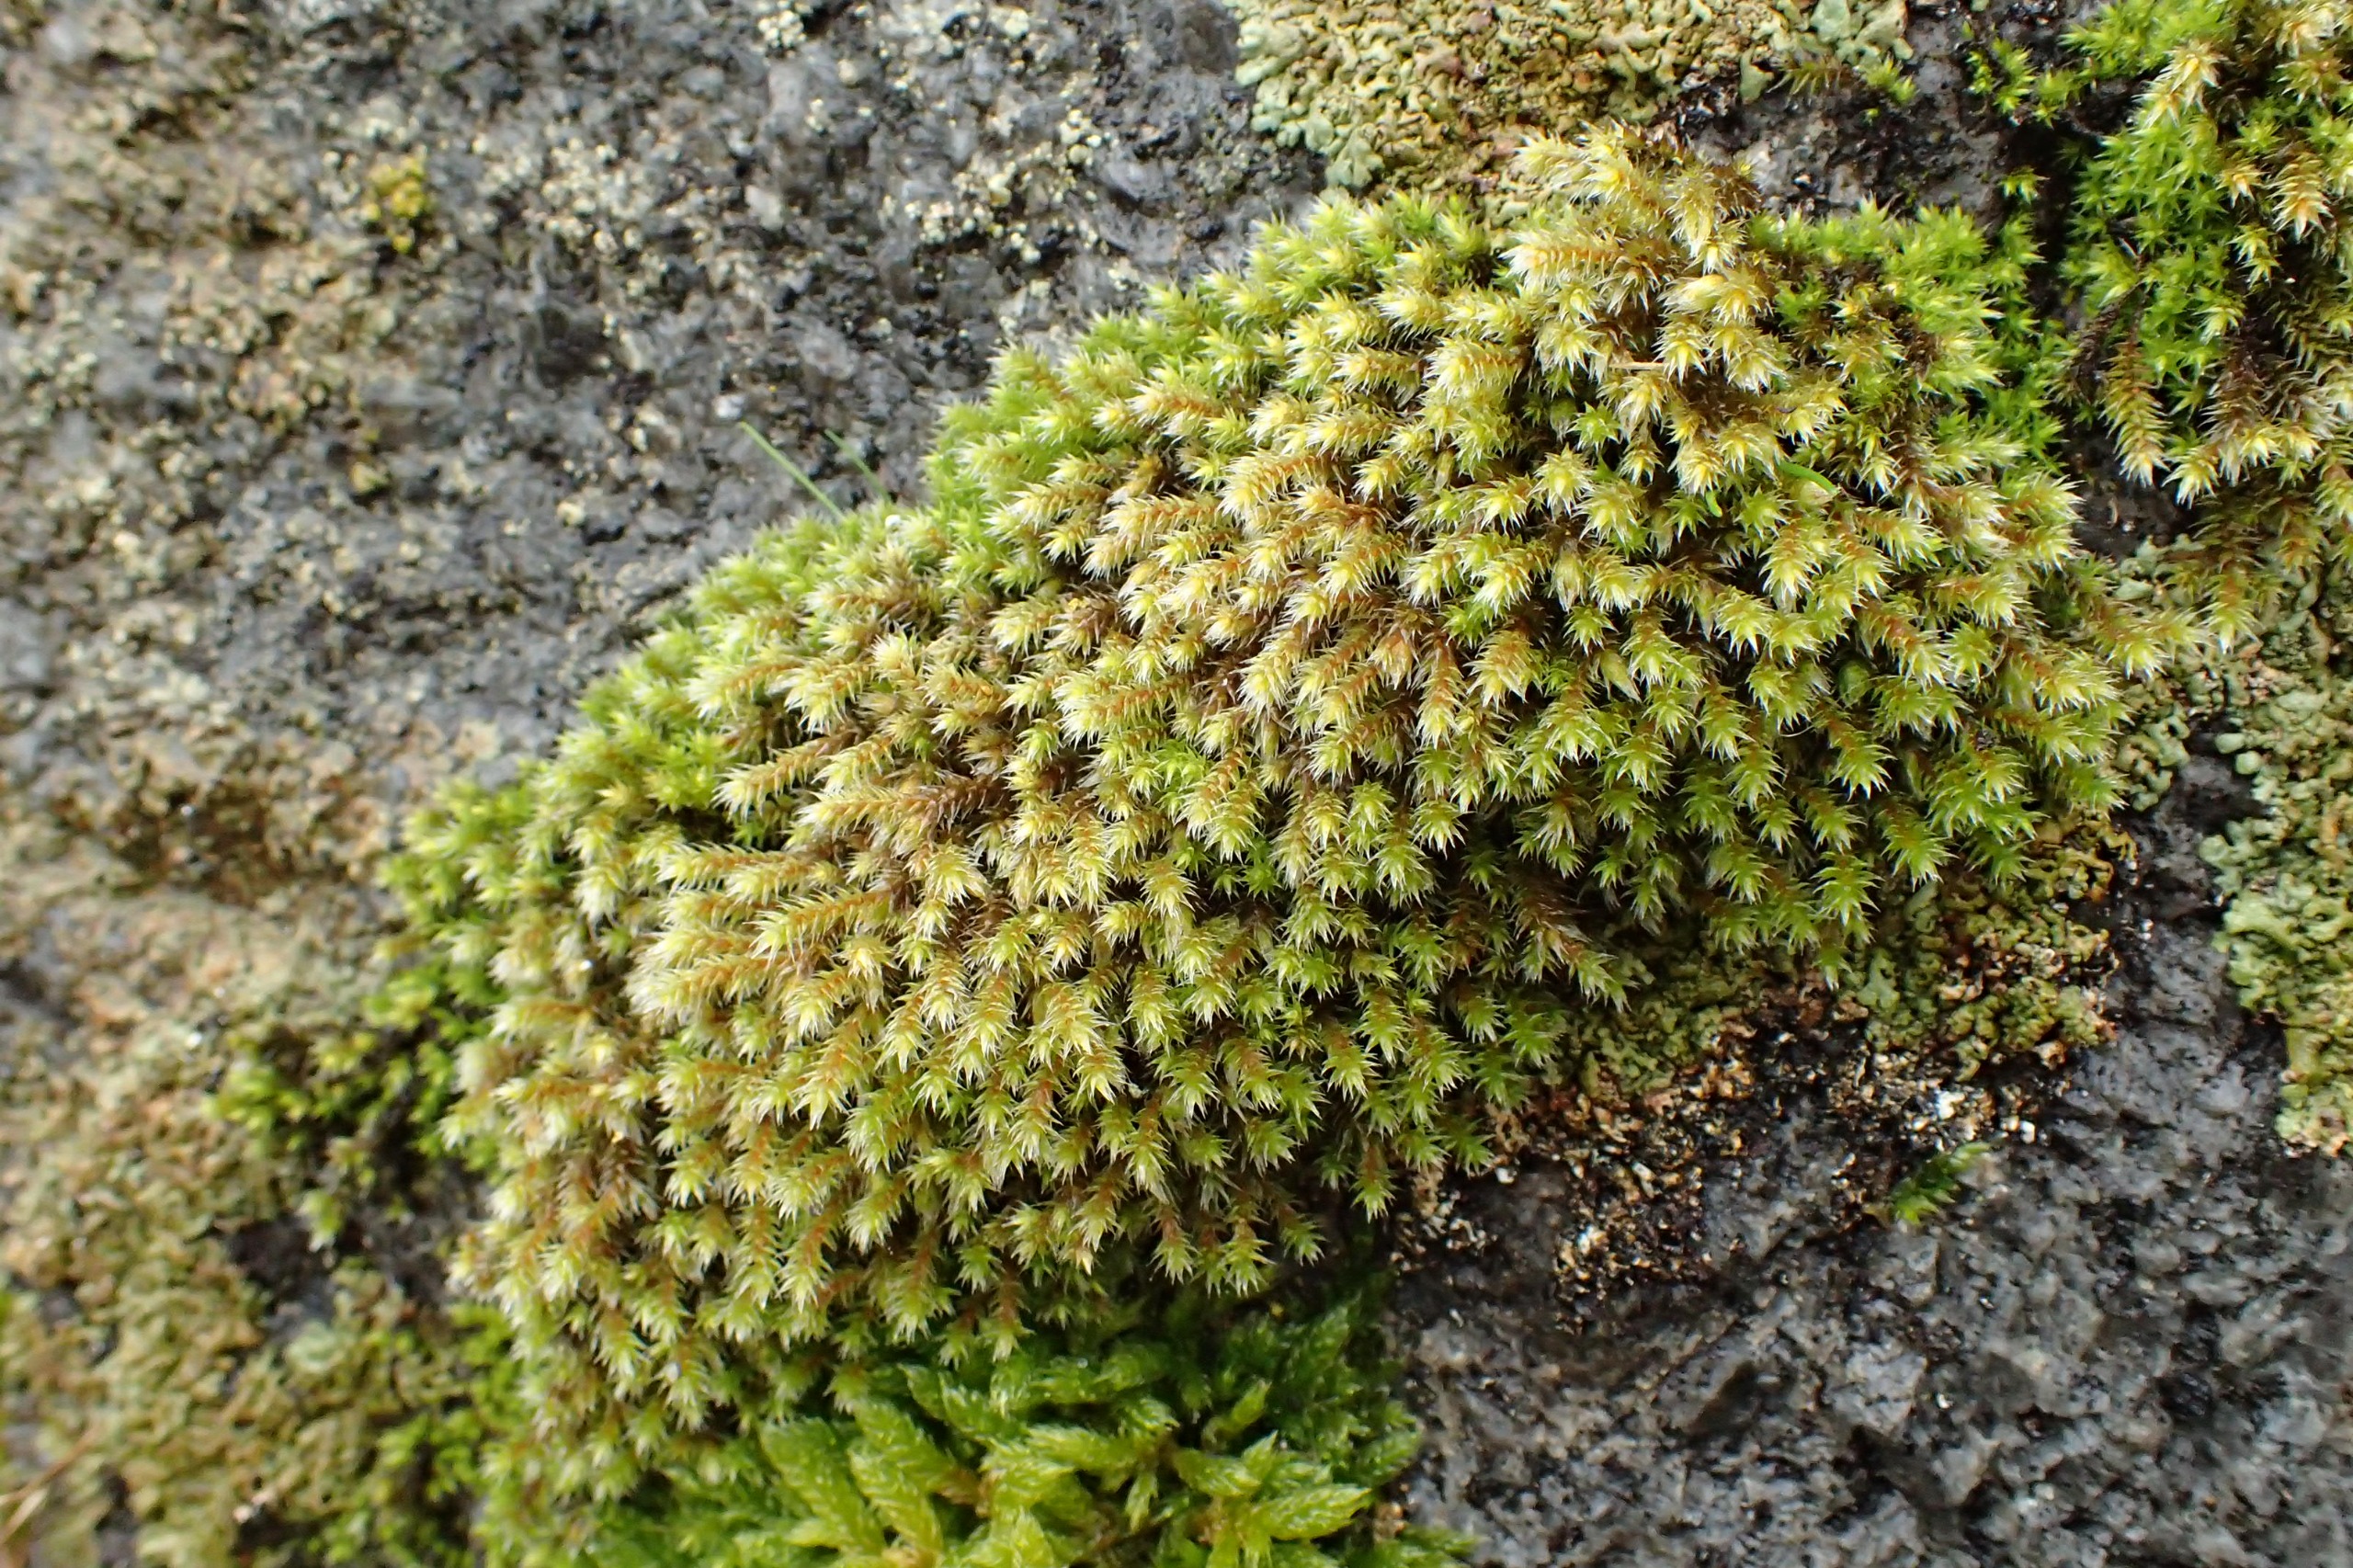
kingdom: Plantae
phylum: Bryophyta
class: Bryopsida
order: Hedwigiales
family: Hedwigiaceae
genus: Hedwigia
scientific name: Hedwigia stellata
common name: Stjernebladet hedwigia
